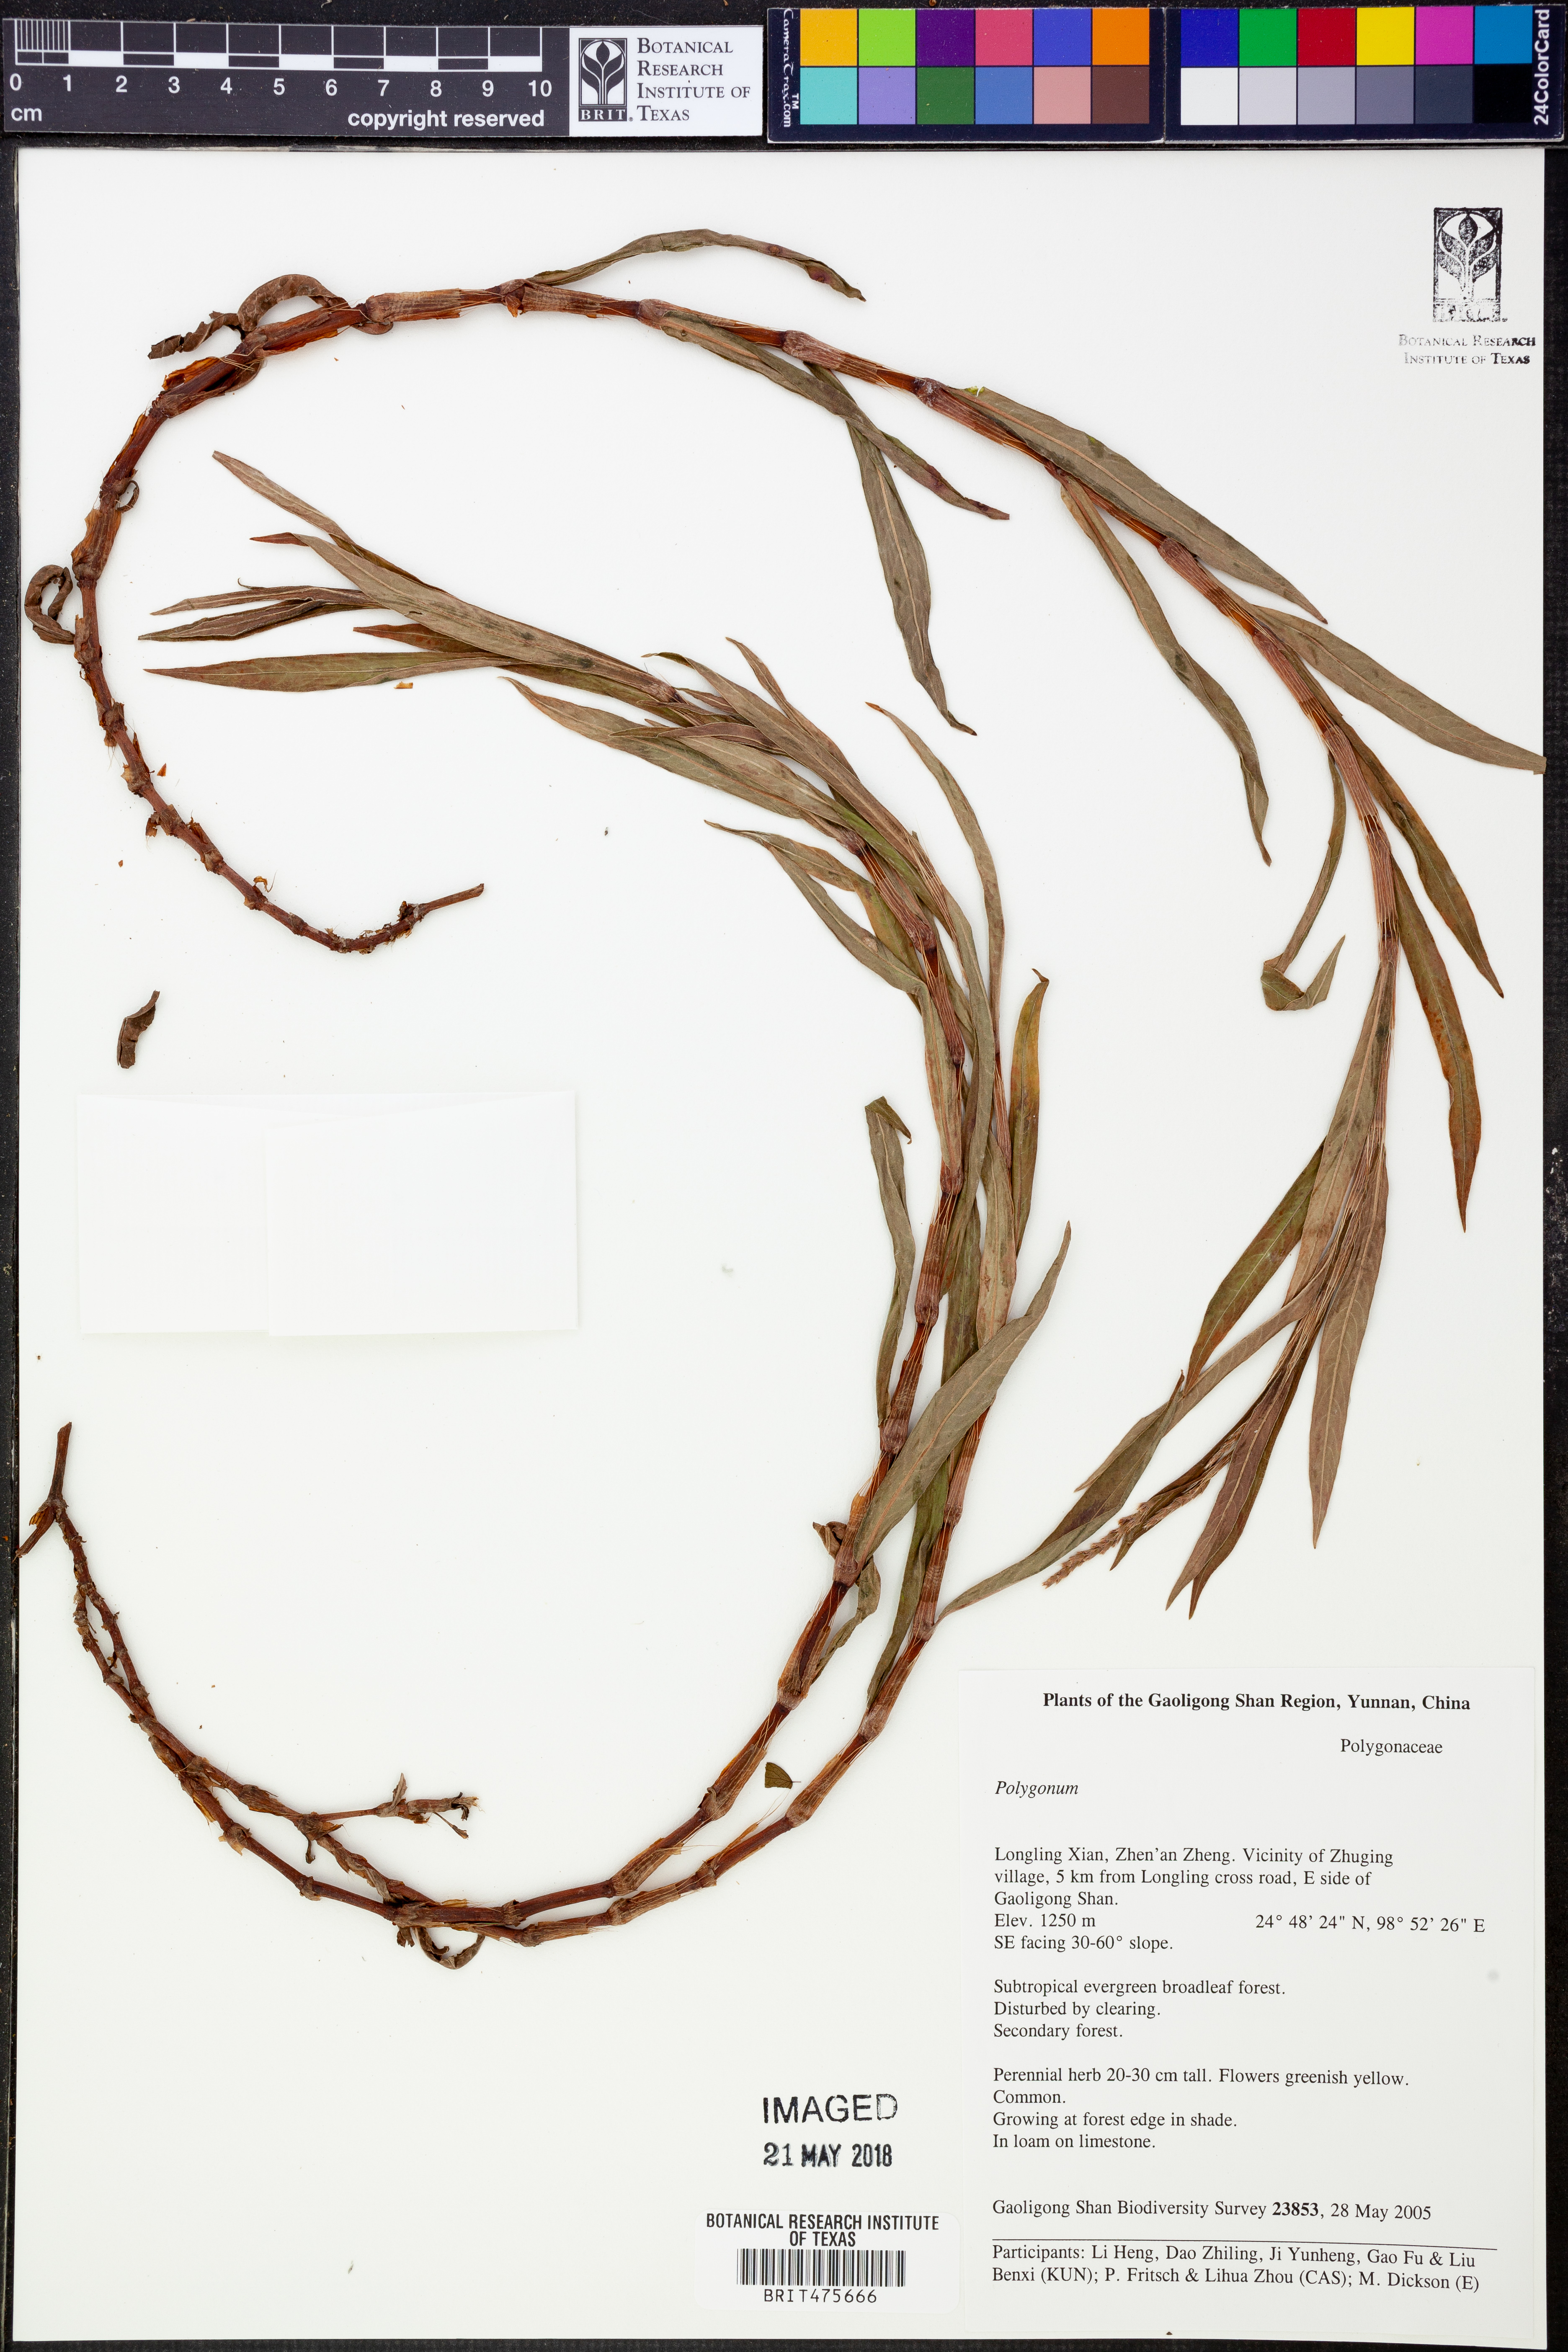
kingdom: Plantae
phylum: Tracheophyta
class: Magnoliopsida
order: Caryophyllales
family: Polygonaceae
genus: Polygonum
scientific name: Polygonum
